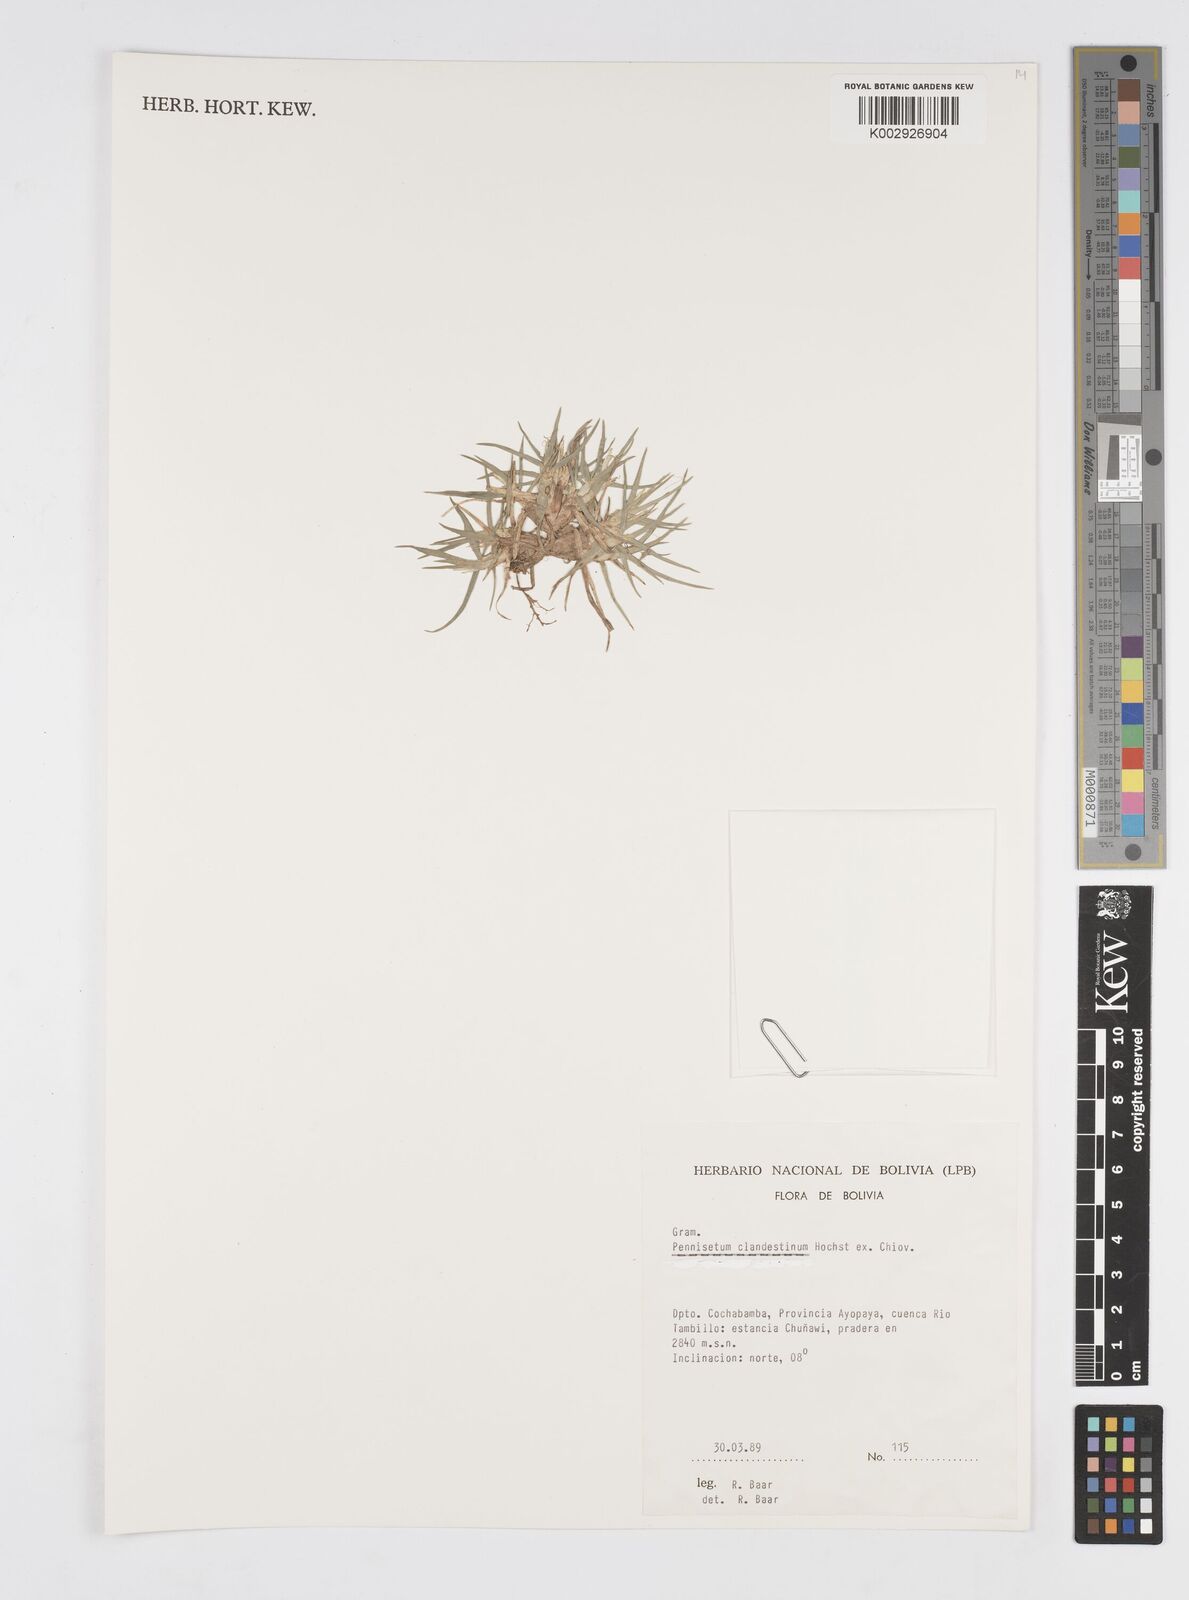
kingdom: Plantae
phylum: Tracheophyta
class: Liliopsida
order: Poales
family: Poaceae
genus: Cenchrus
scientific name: Cenchrus clandestinus
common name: Kikuyugrass
